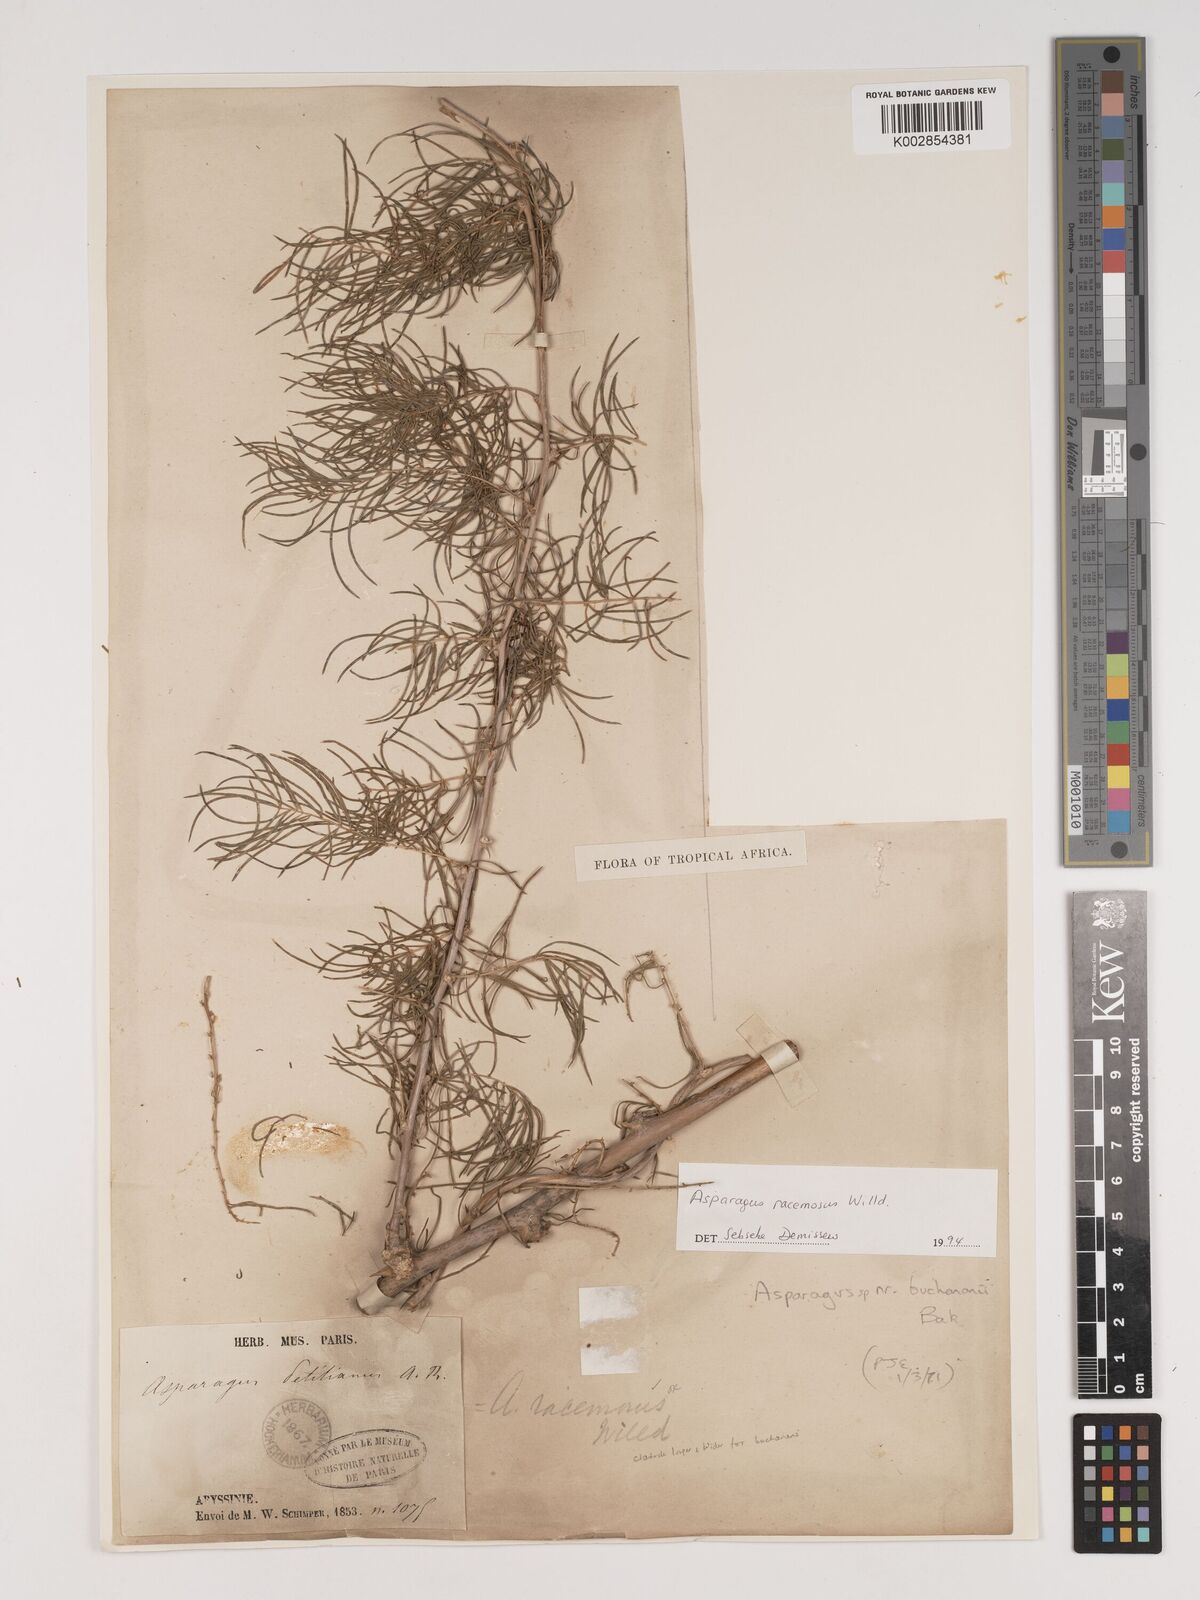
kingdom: Plantae
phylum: Tracheophyta
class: Liliopsida
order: Asparagales
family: Asparagaceae
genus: Asparagus
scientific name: Asparagus racemosus
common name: Asparagus-fern
